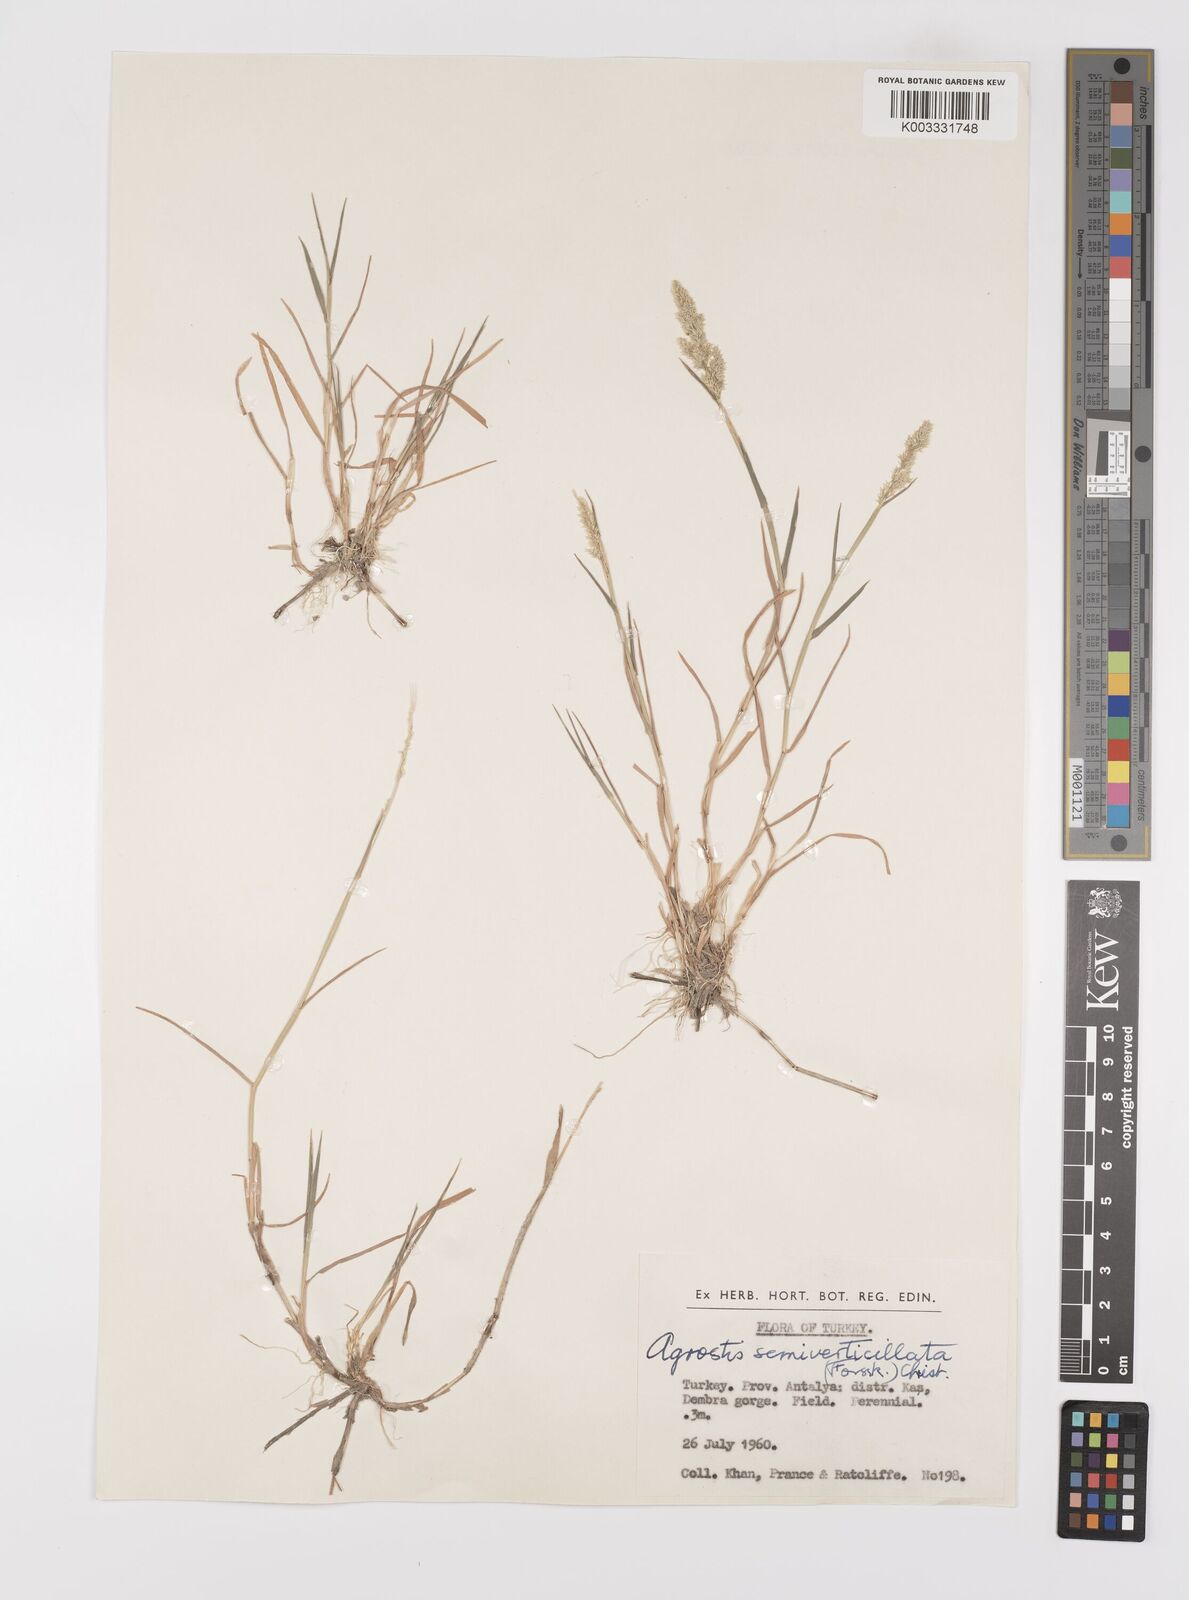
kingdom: Plantae
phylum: Tracheophyta
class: Liliopsida
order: Poales
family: Poaceae
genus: Polypogon
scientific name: Polypogon viridis
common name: Water bent
